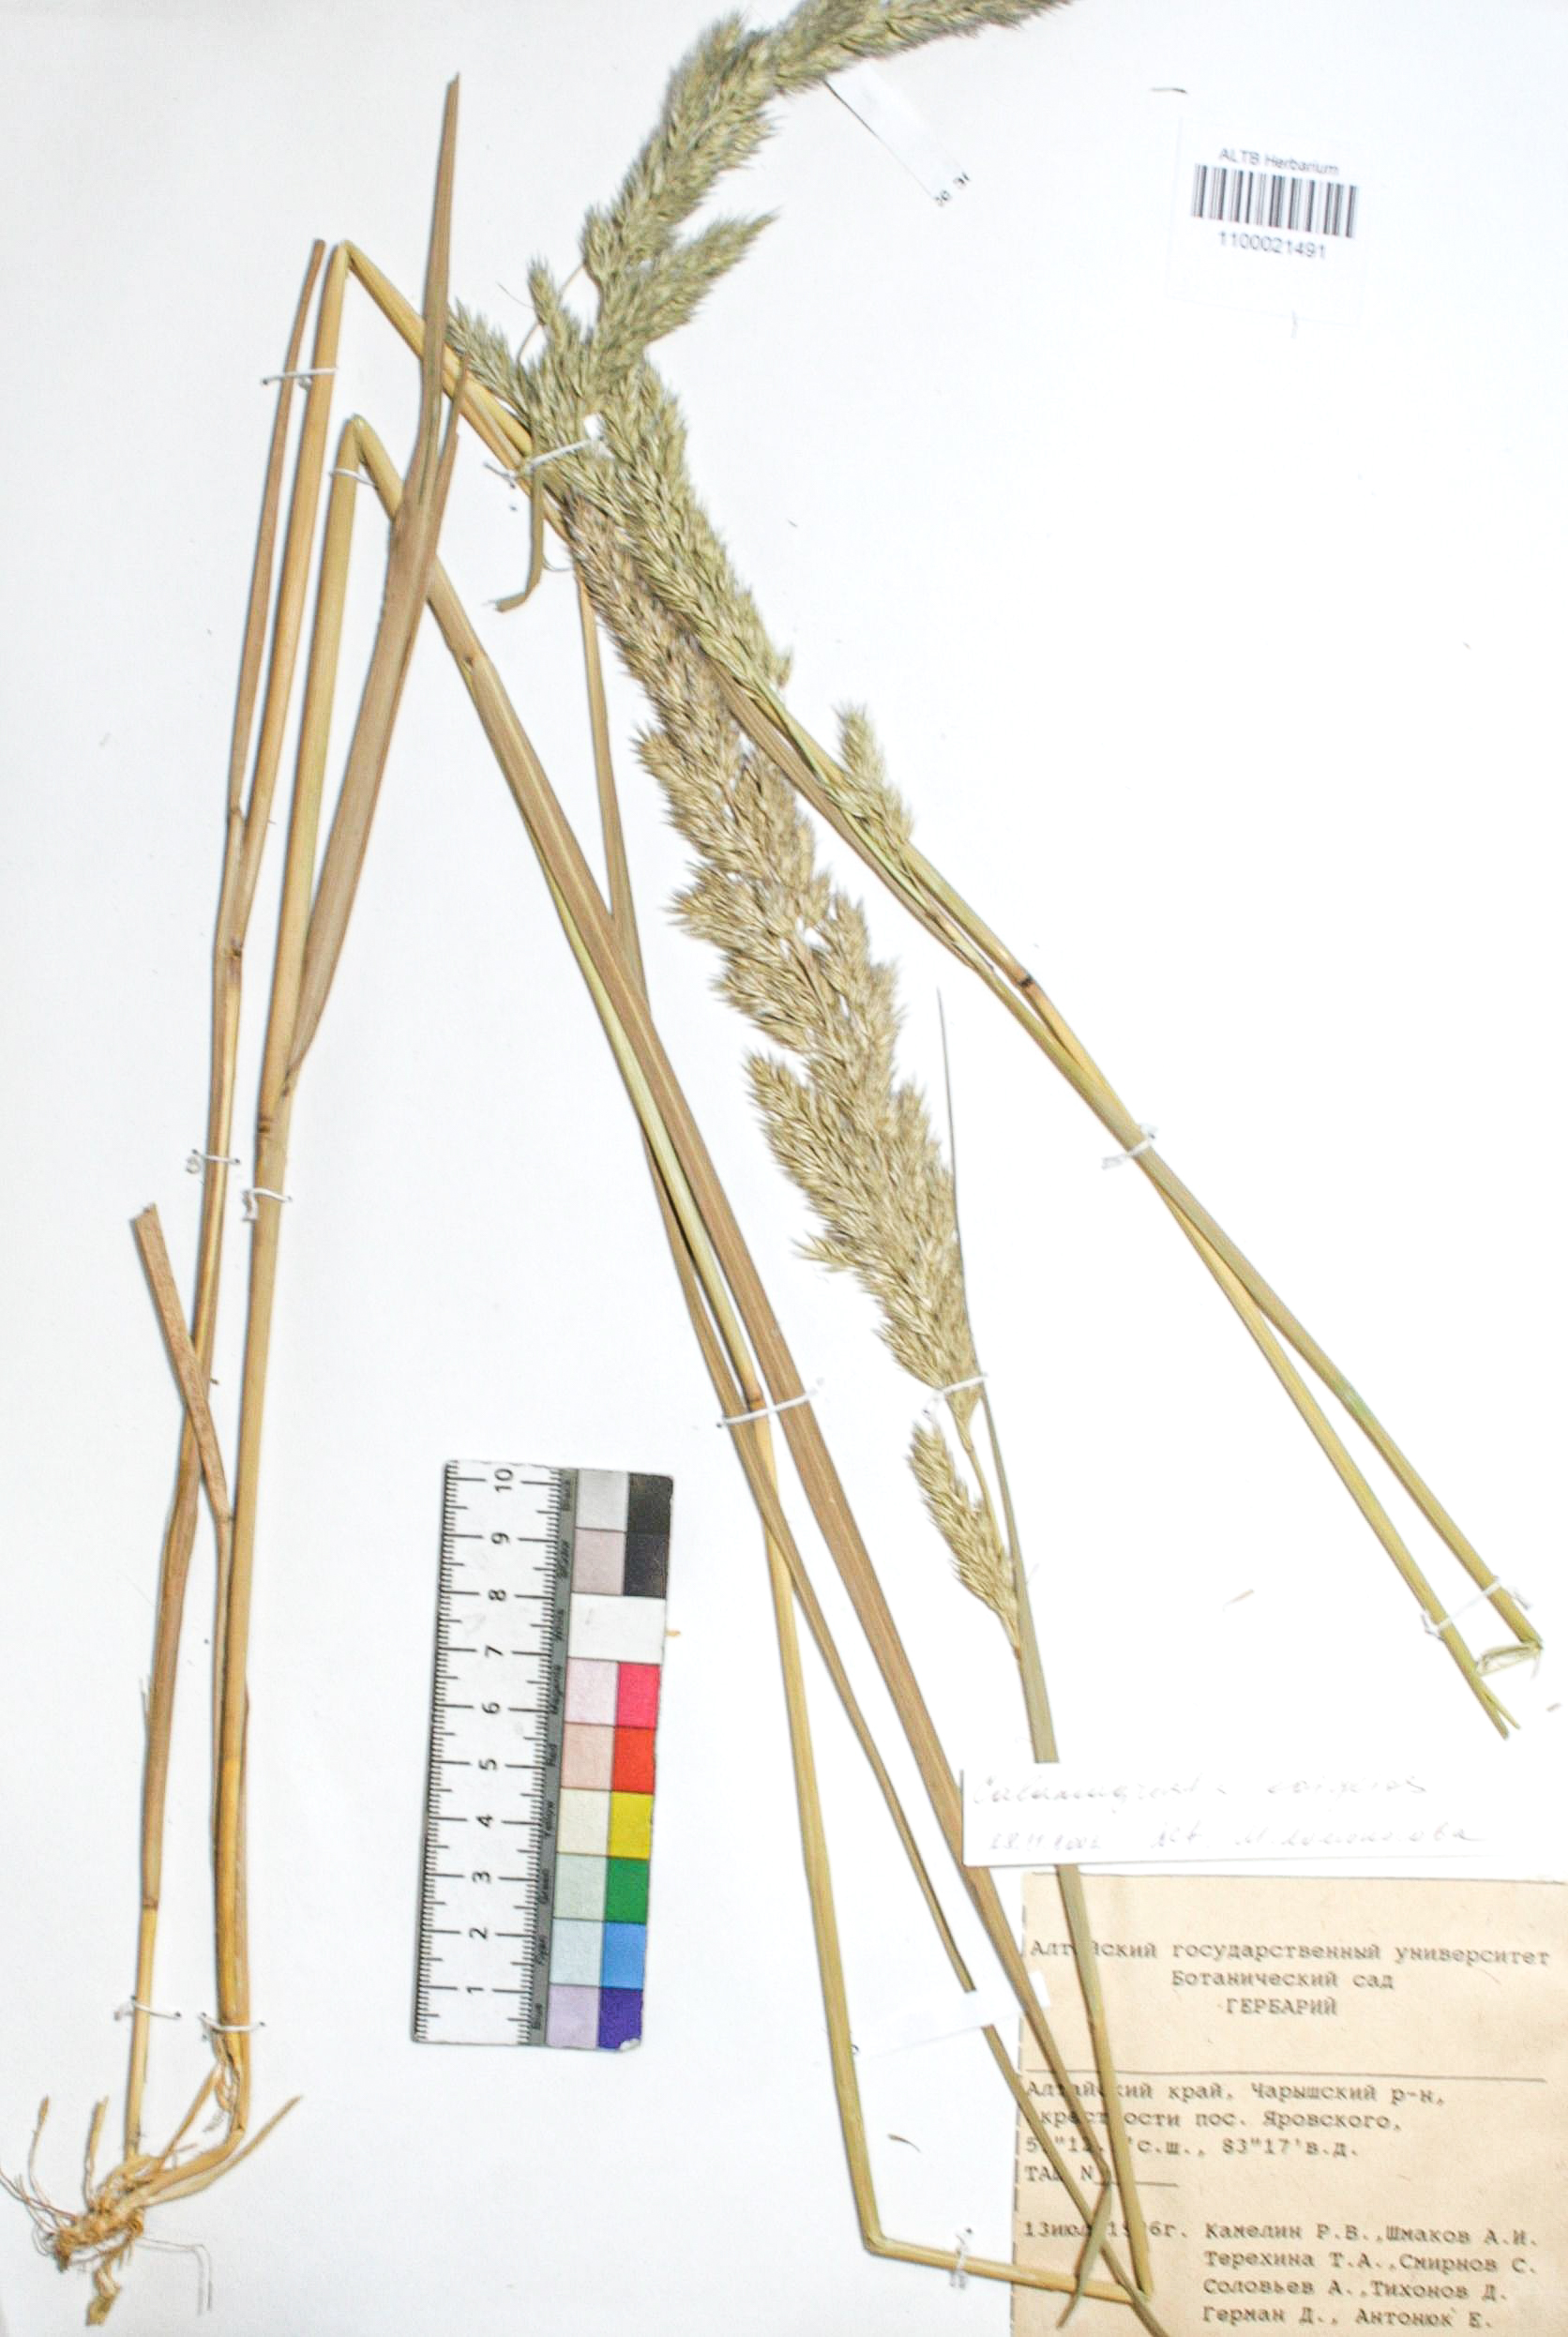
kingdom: Plantae
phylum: Tracheophyta
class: Liliopsida
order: Poales
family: Poaceae
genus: Calamagrostis
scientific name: Calamagrostis epigejos
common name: Wood small-reed
